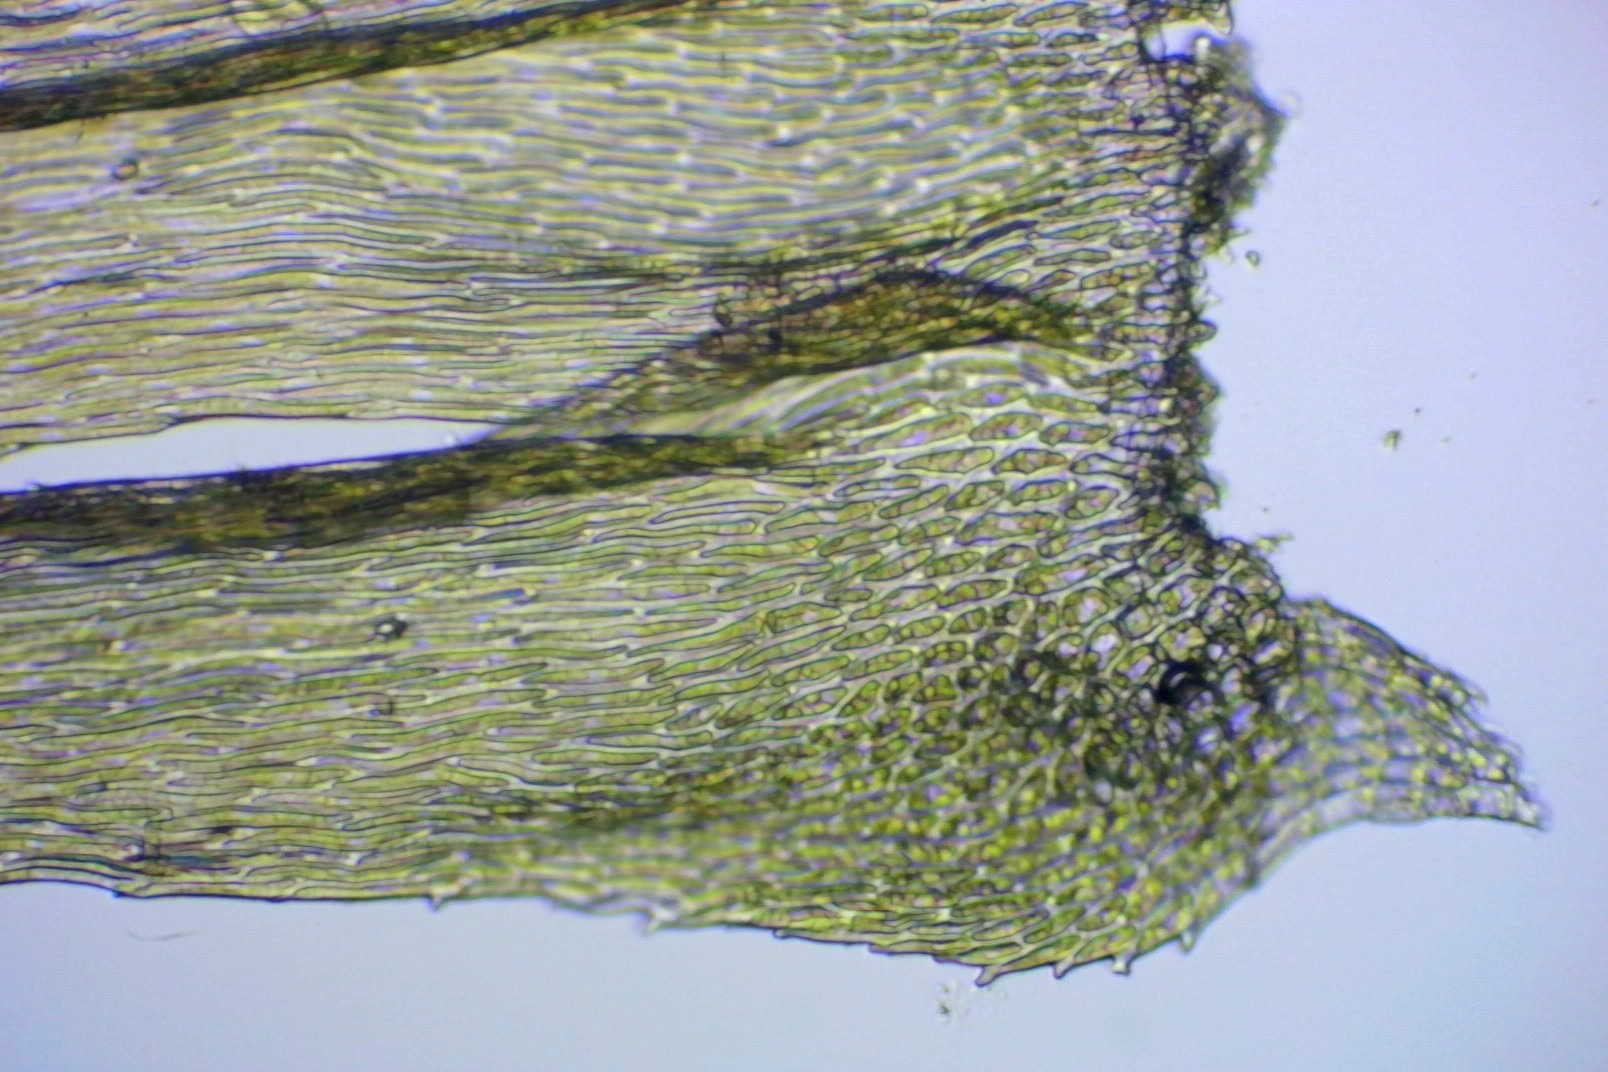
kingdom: Plantae
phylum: Bryophyta
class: Bryopsida
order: Hypnales
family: Brachytheciaceae
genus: Homalothecium
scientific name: Homalothecium sericeum
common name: Krybende silkemos
